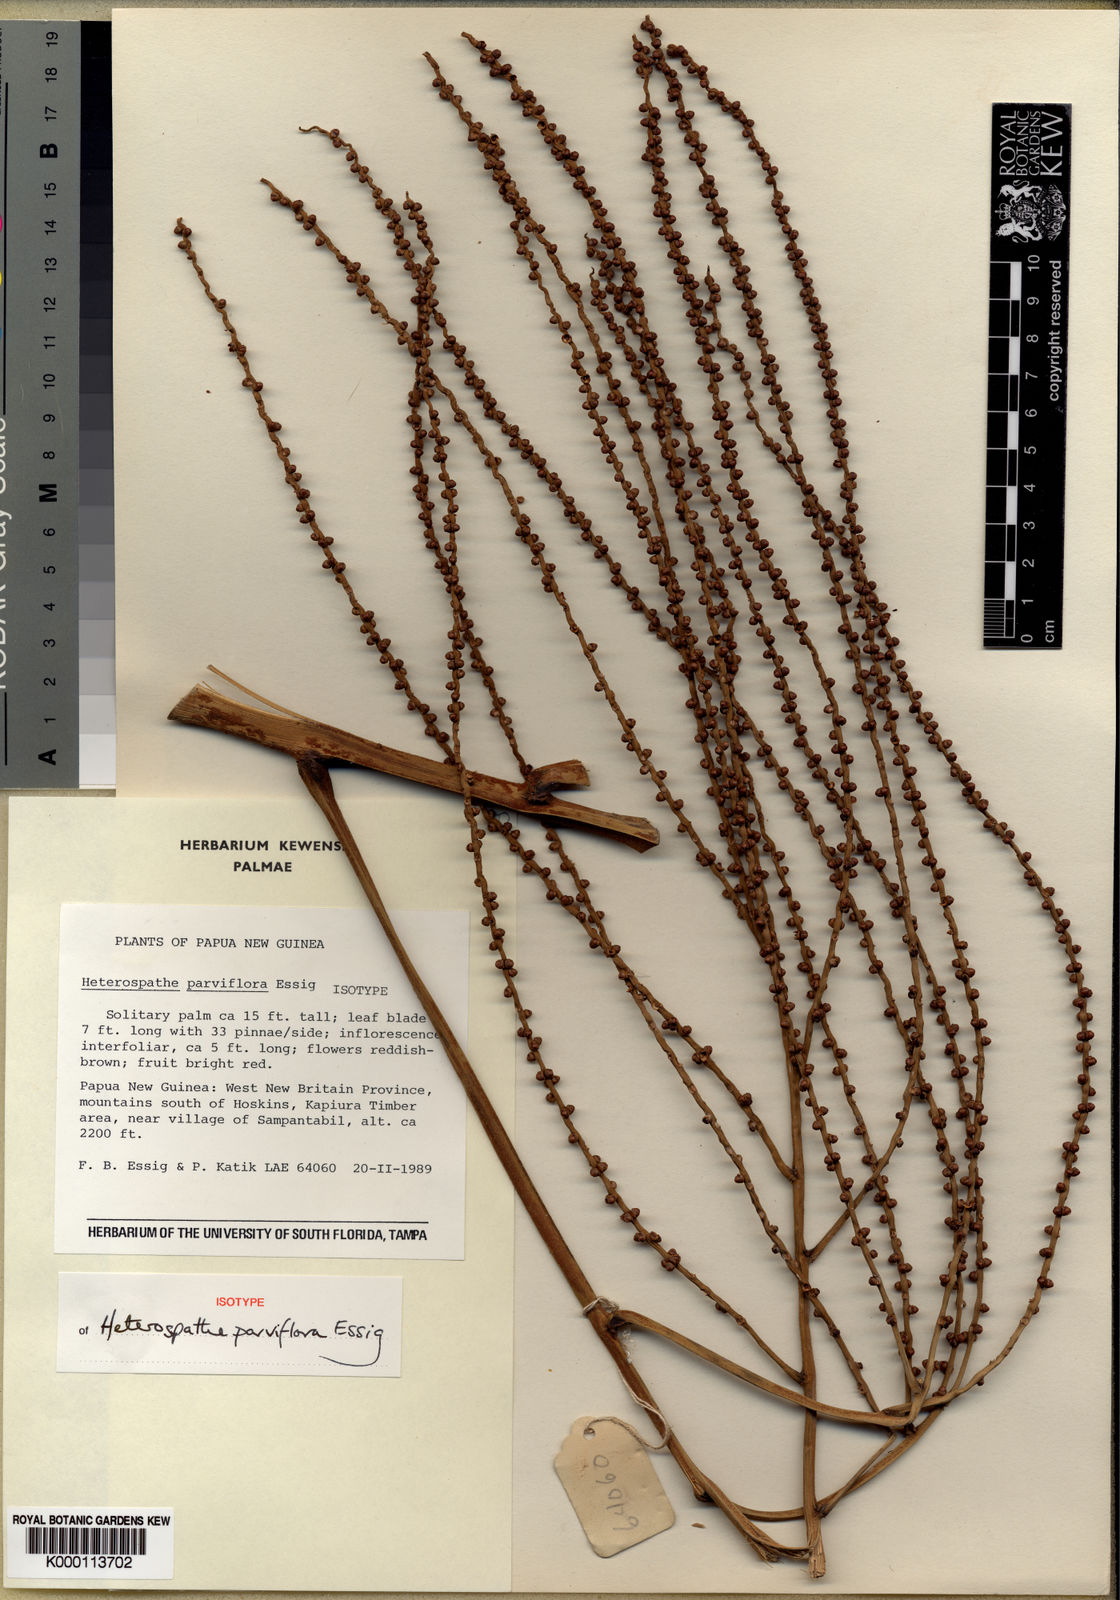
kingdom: Plantae
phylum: Tracheophyta
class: Liliopsida
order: Arecales
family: Arecaceae
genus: Heterospathe
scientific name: Heterospathe parviflora
